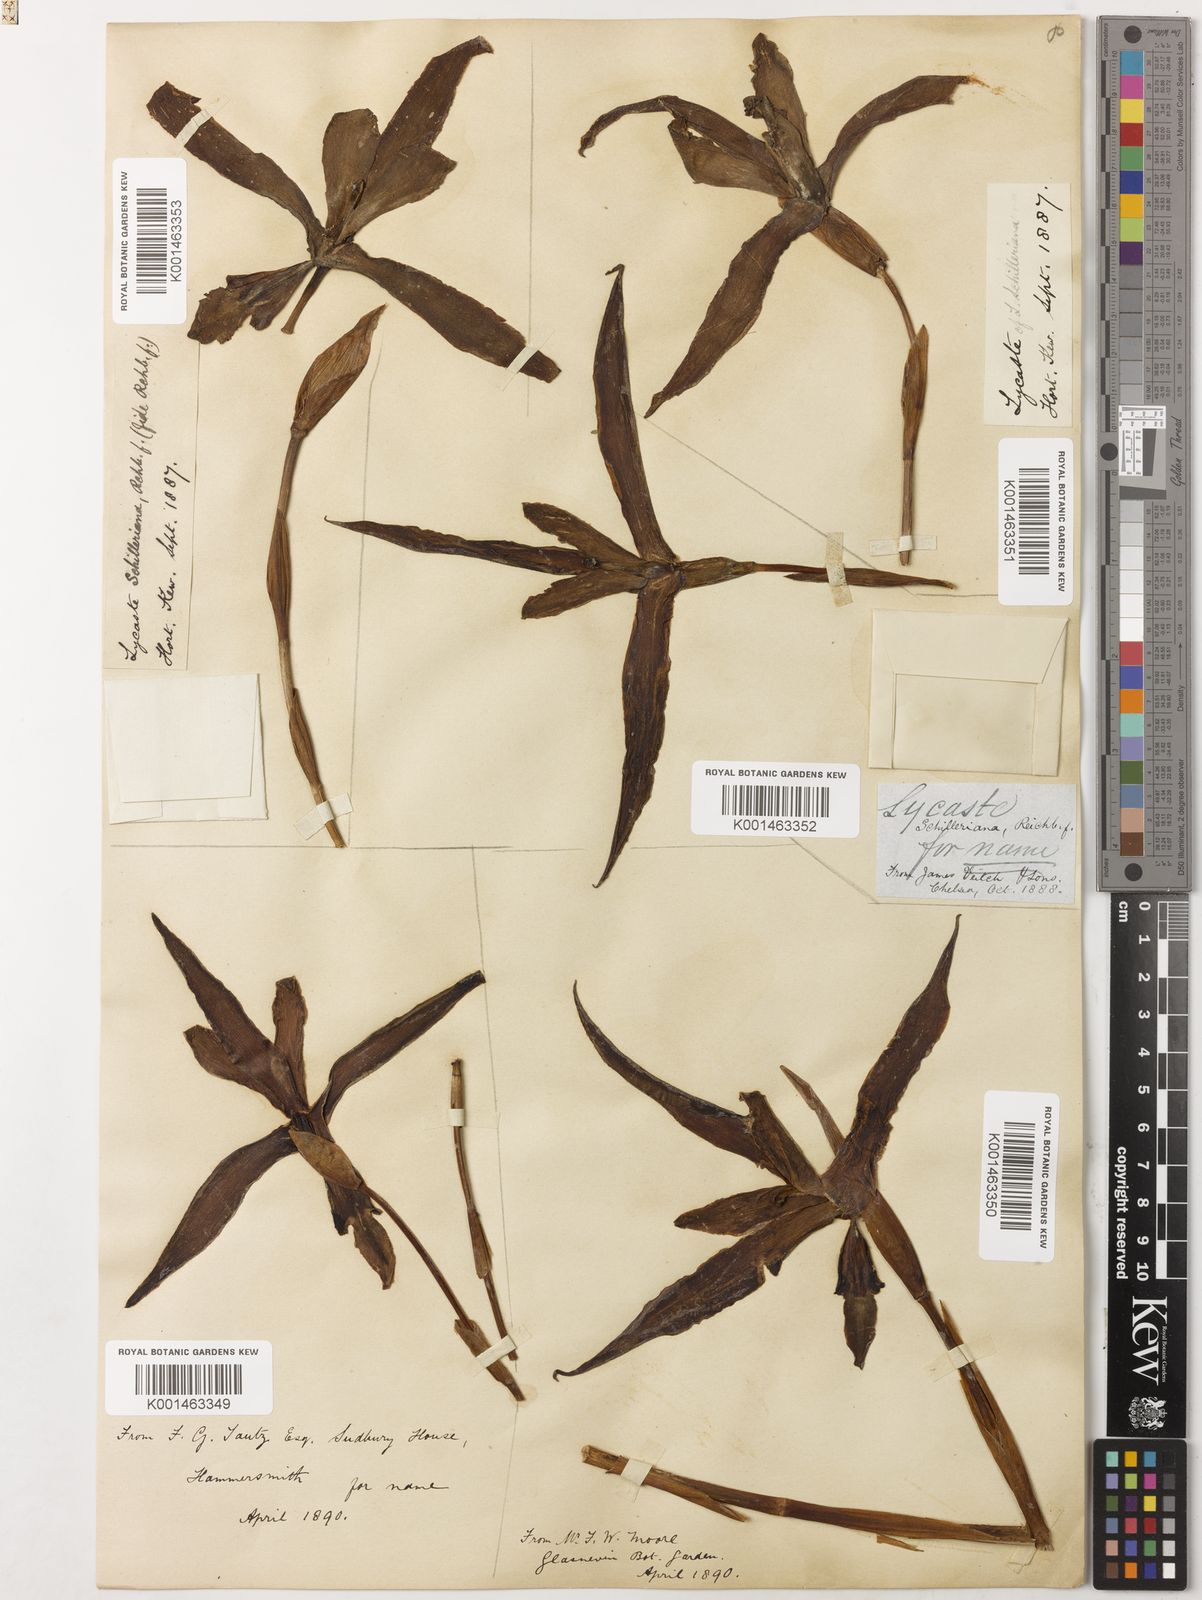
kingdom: Plantae
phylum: Tracheophyta
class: Liliopsida
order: Asparagales
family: Orchidaceae
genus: Lycaste
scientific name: Lycaste schilleriana
